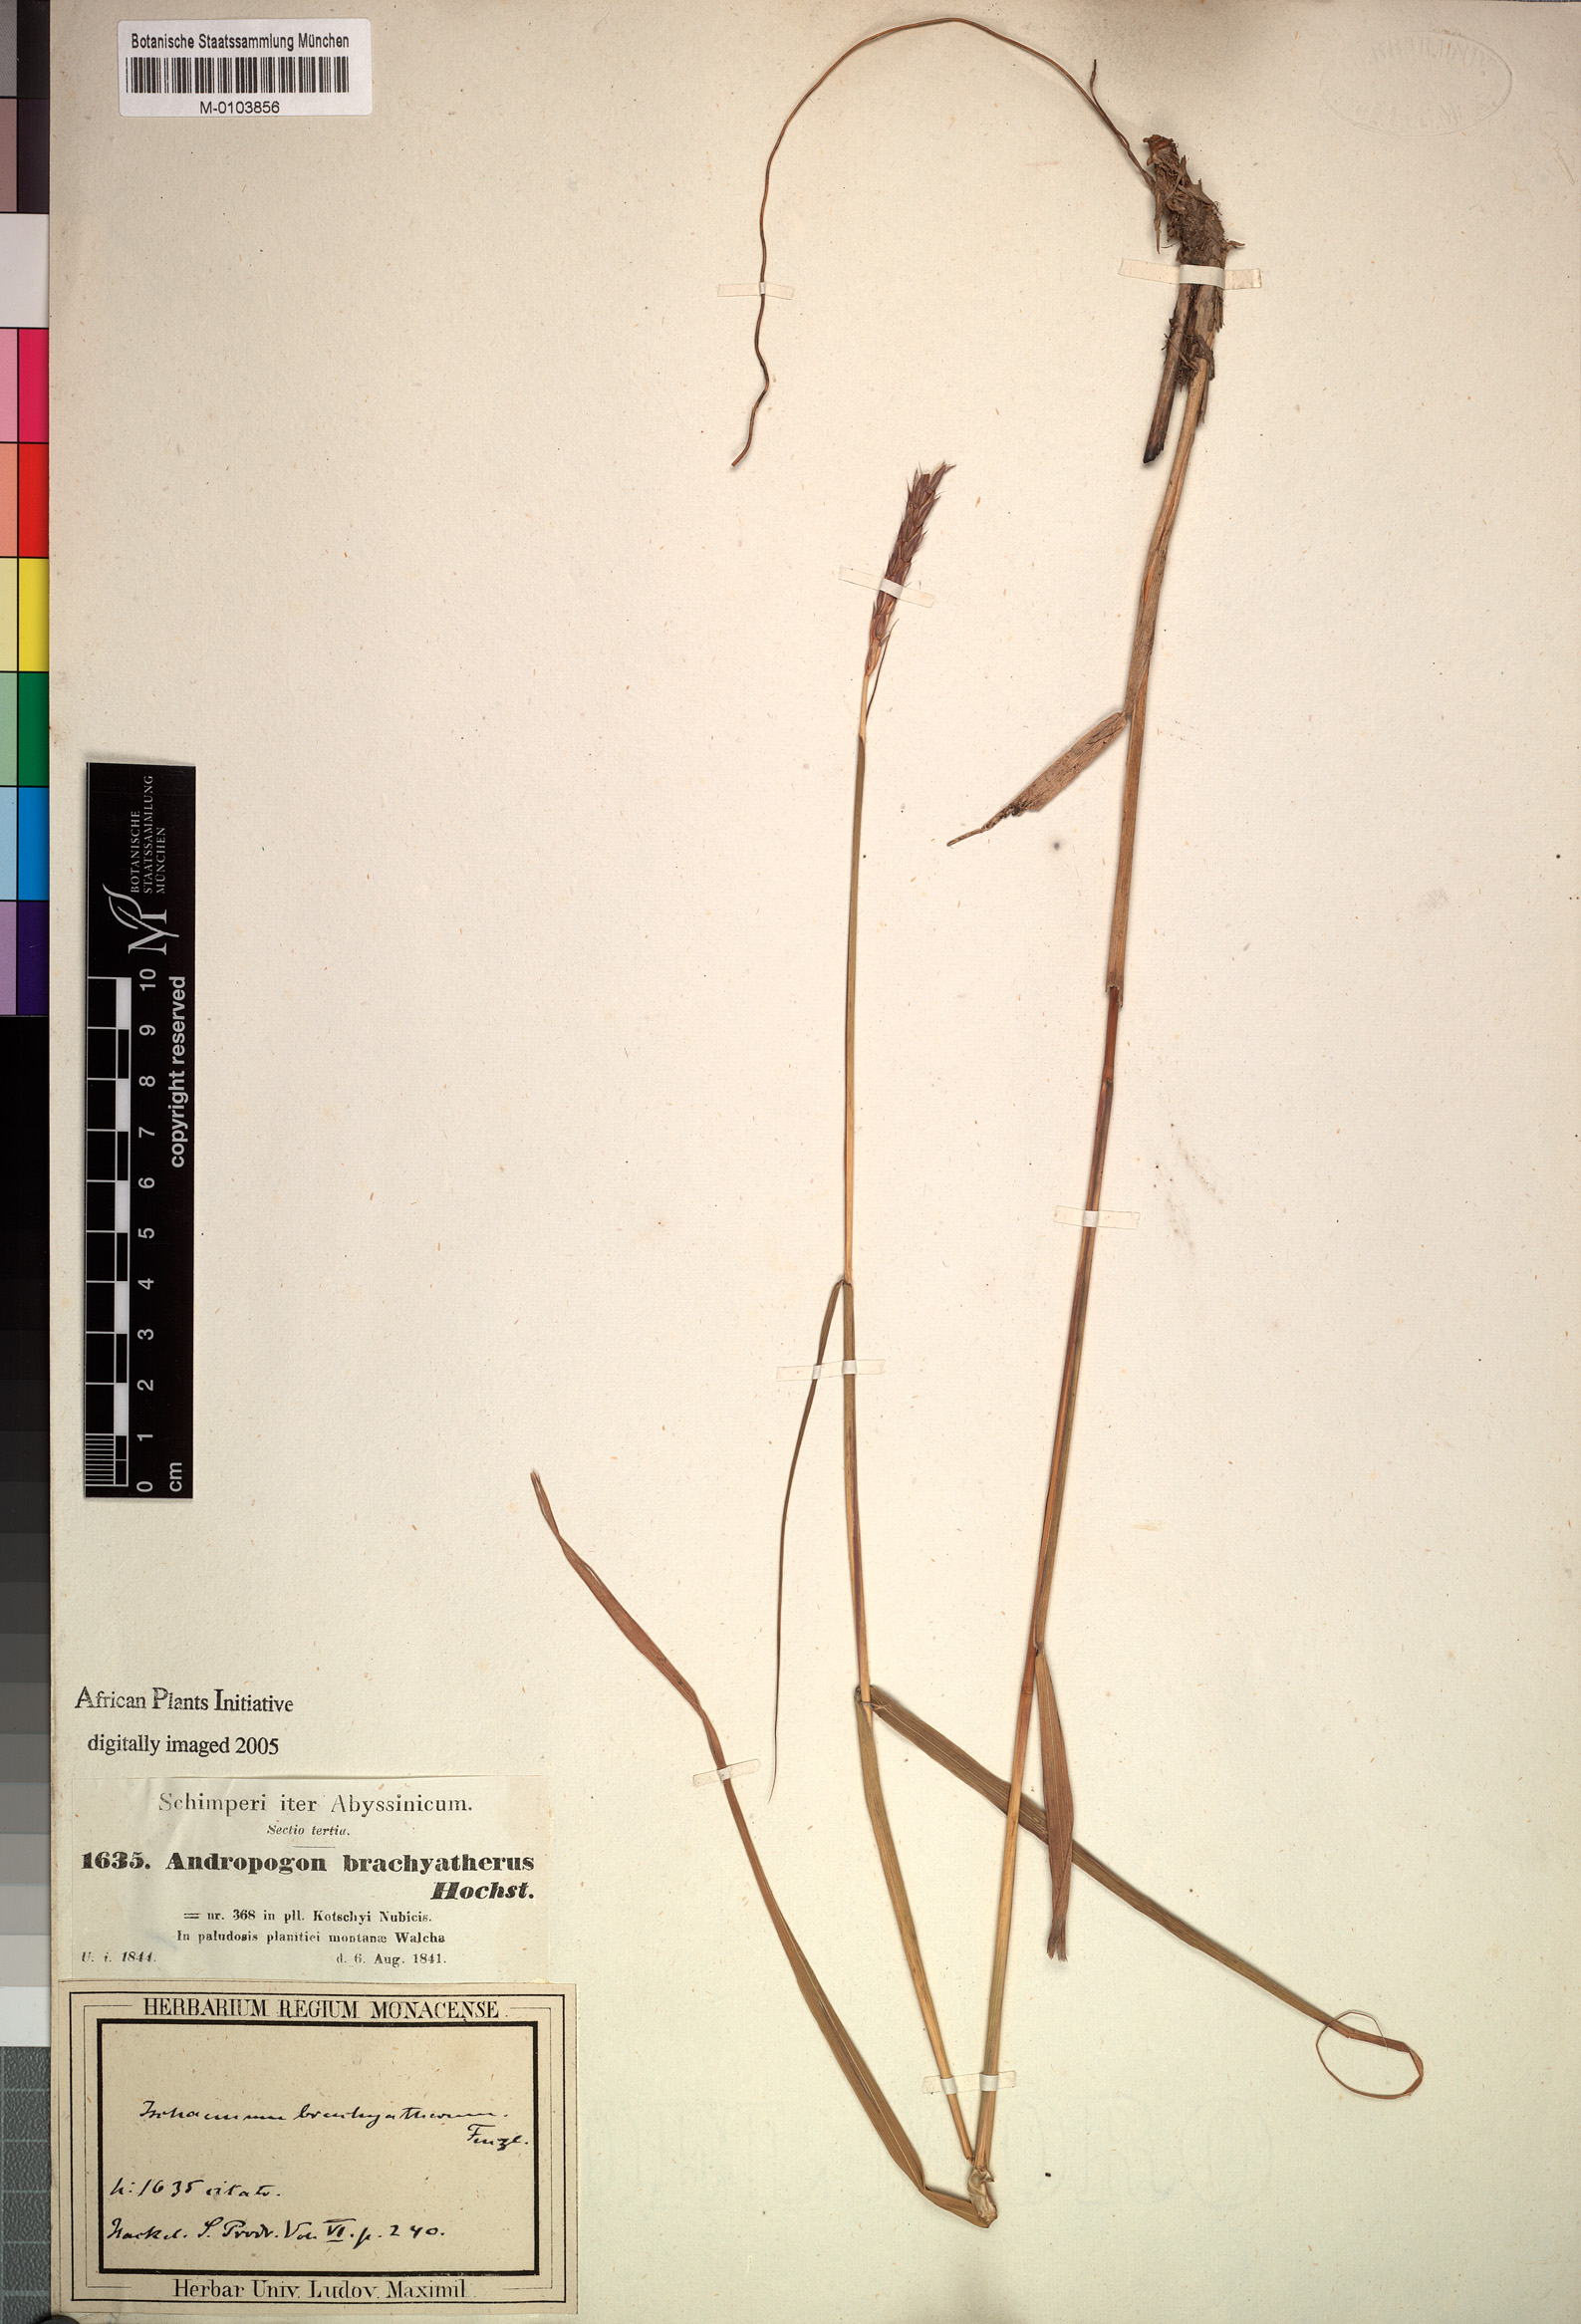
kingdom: Plantae
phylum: Tracheophyta
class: Liliopsida
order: Poales
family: Poaceae
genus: Ischaemum
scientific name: Ischaemum afrum
